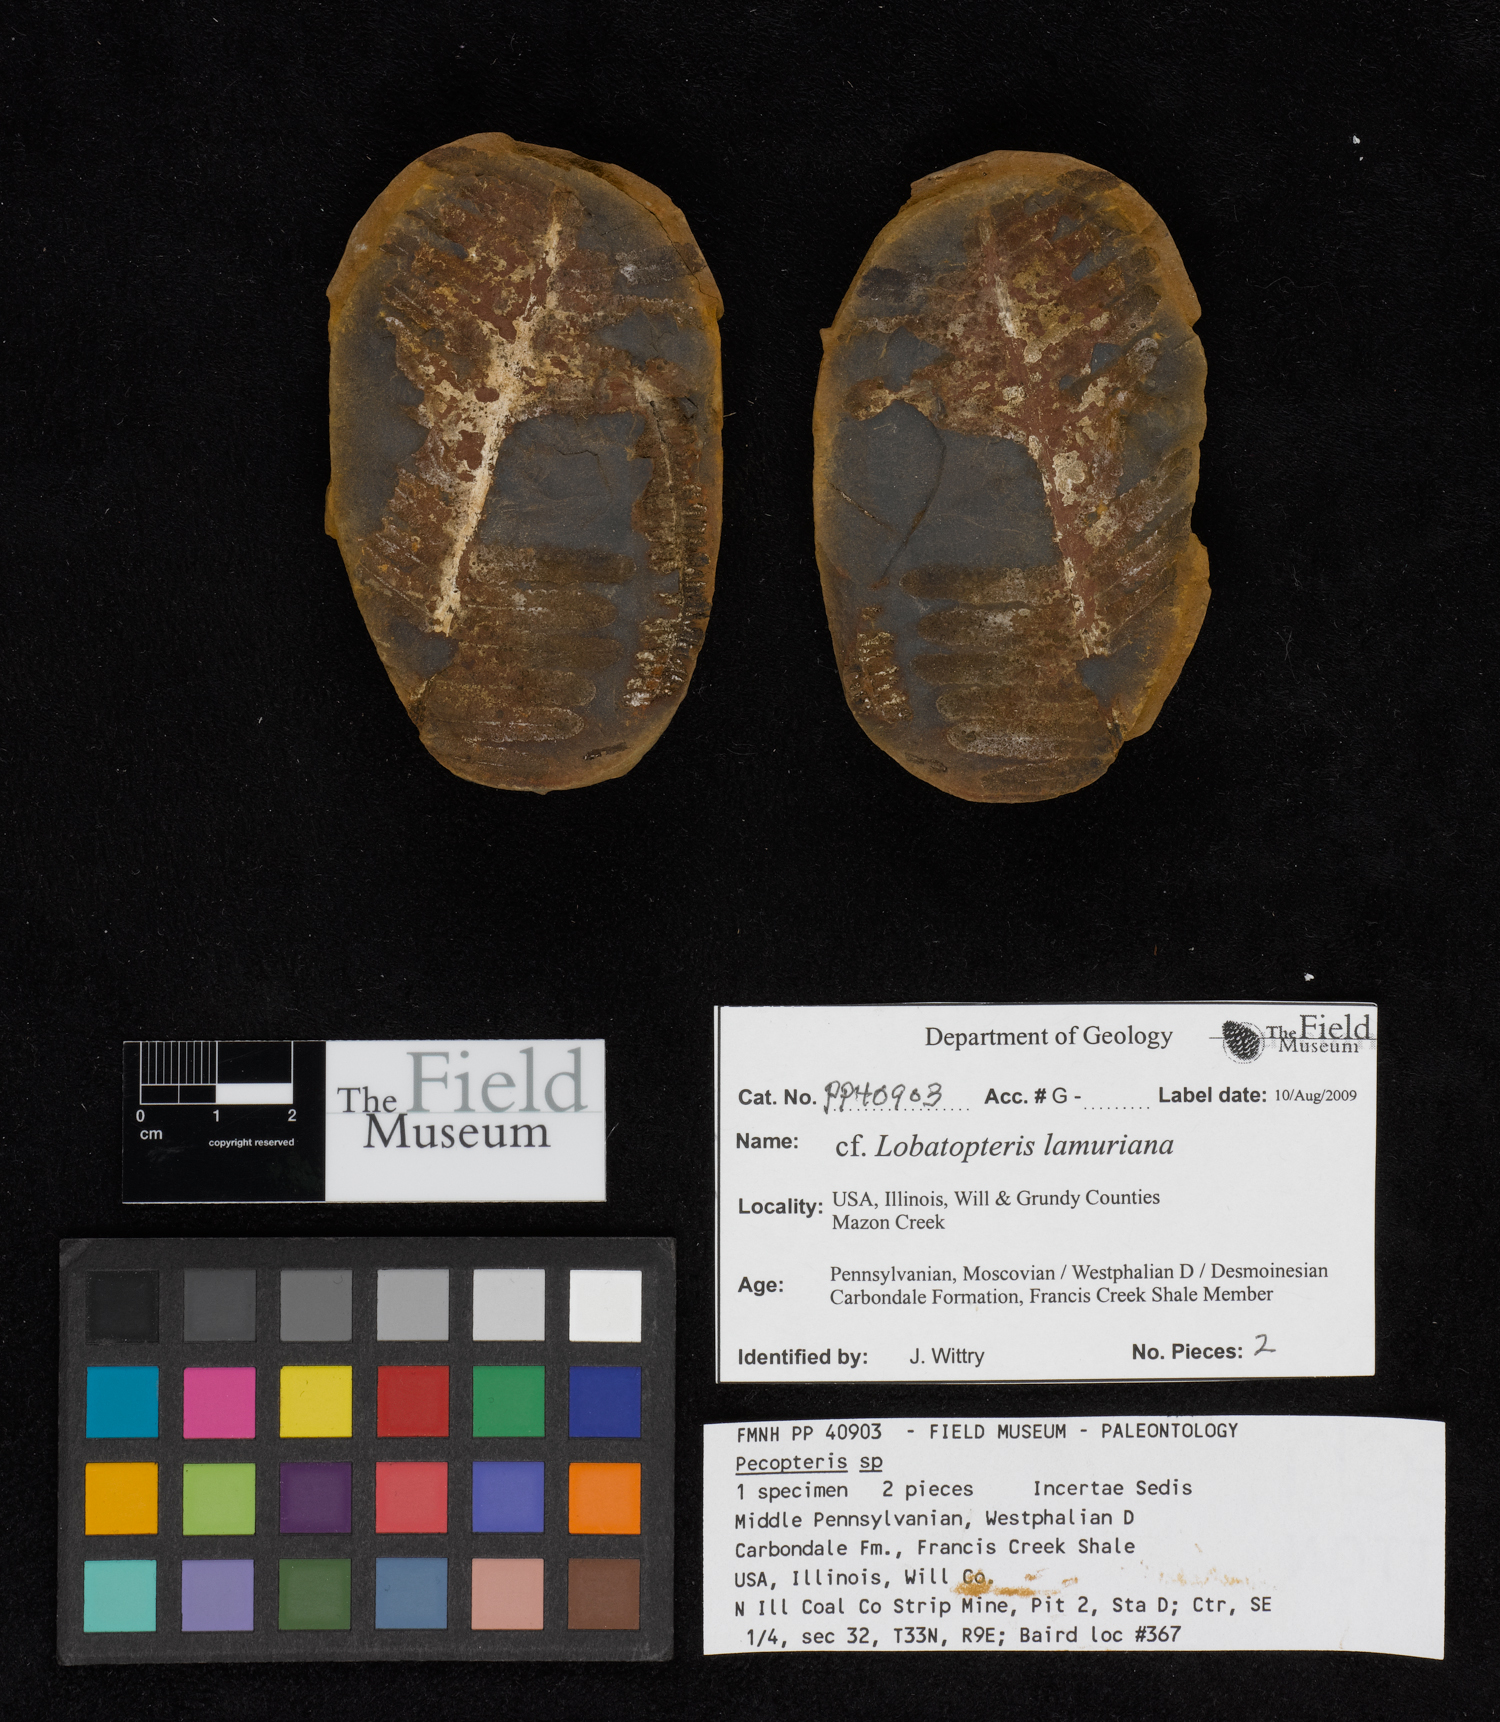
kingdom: Plantae
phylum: Tracheophyta
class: Polypodiopsida
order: Marattiales
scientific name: Marattiales
